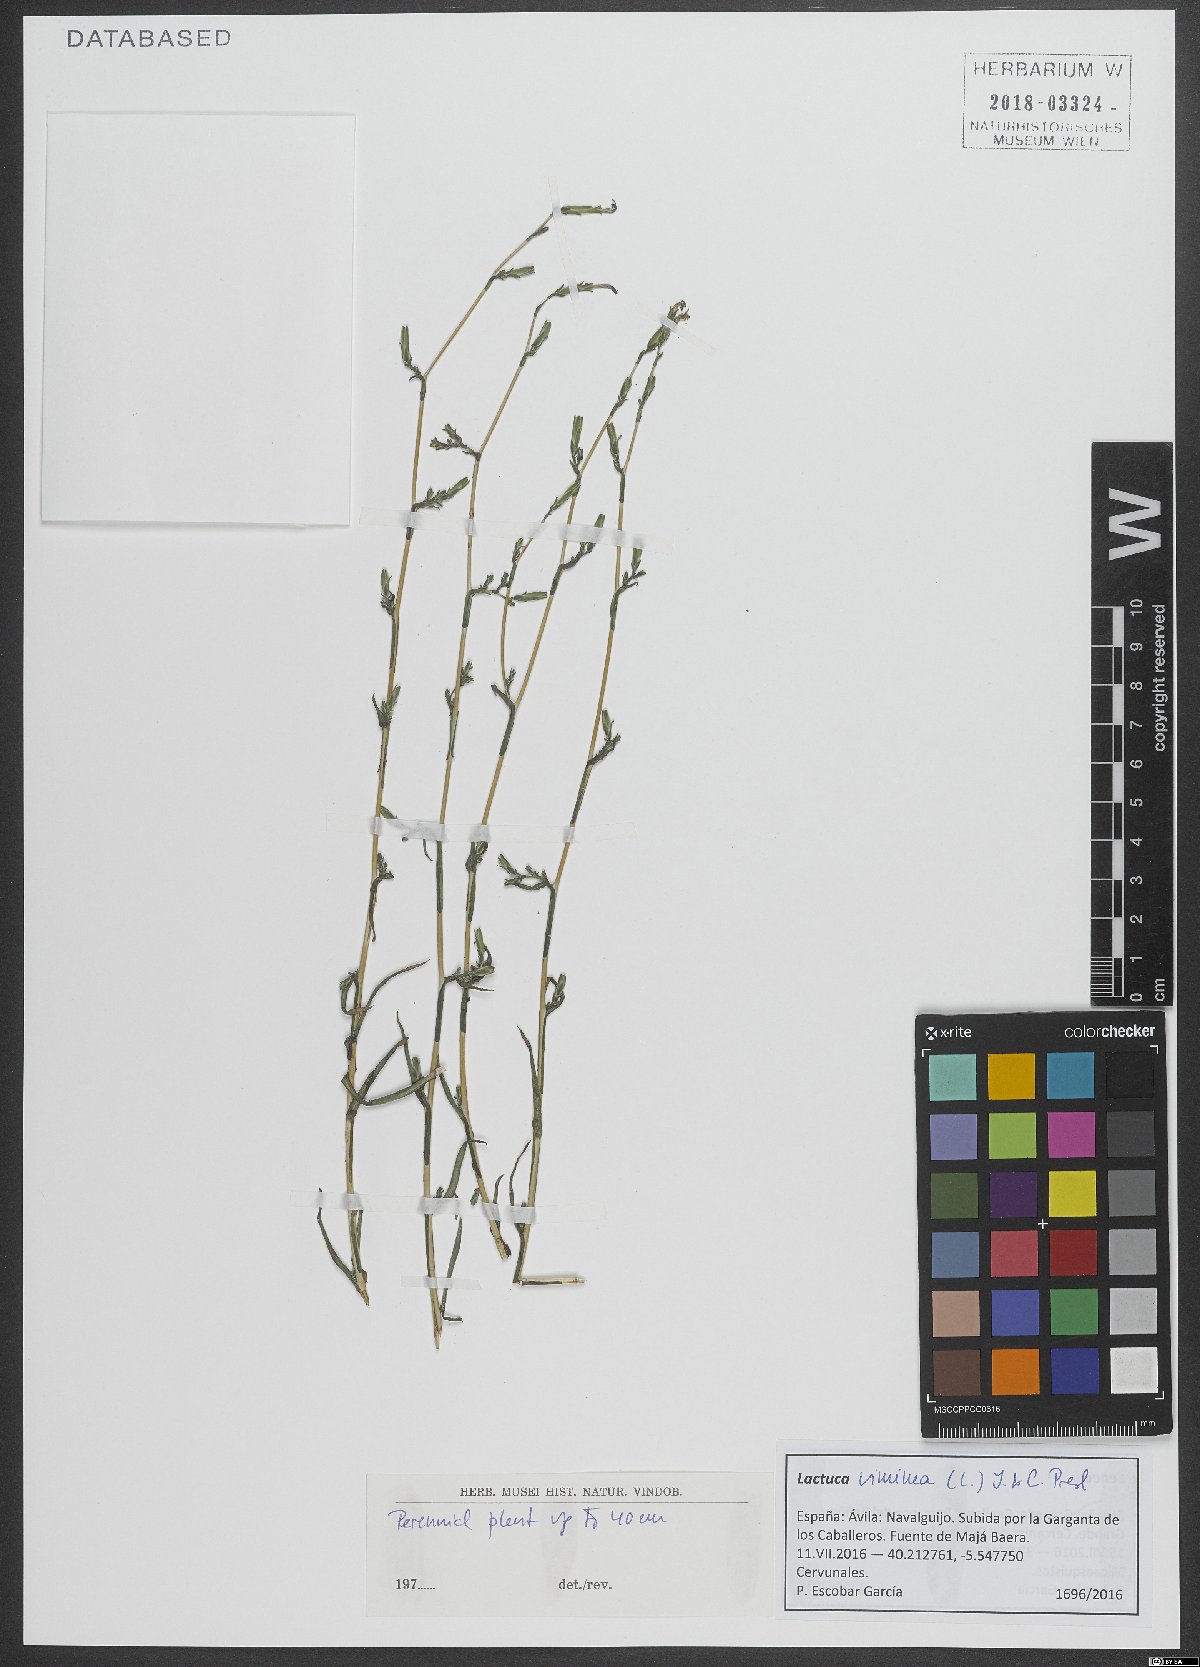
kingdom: Plantae
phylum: Tracheophyta
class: Magnoliopsida
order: Asterales
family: Asteraceae
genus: Lactuca
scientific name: Lactuca viminea
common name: Pliant lettuce
